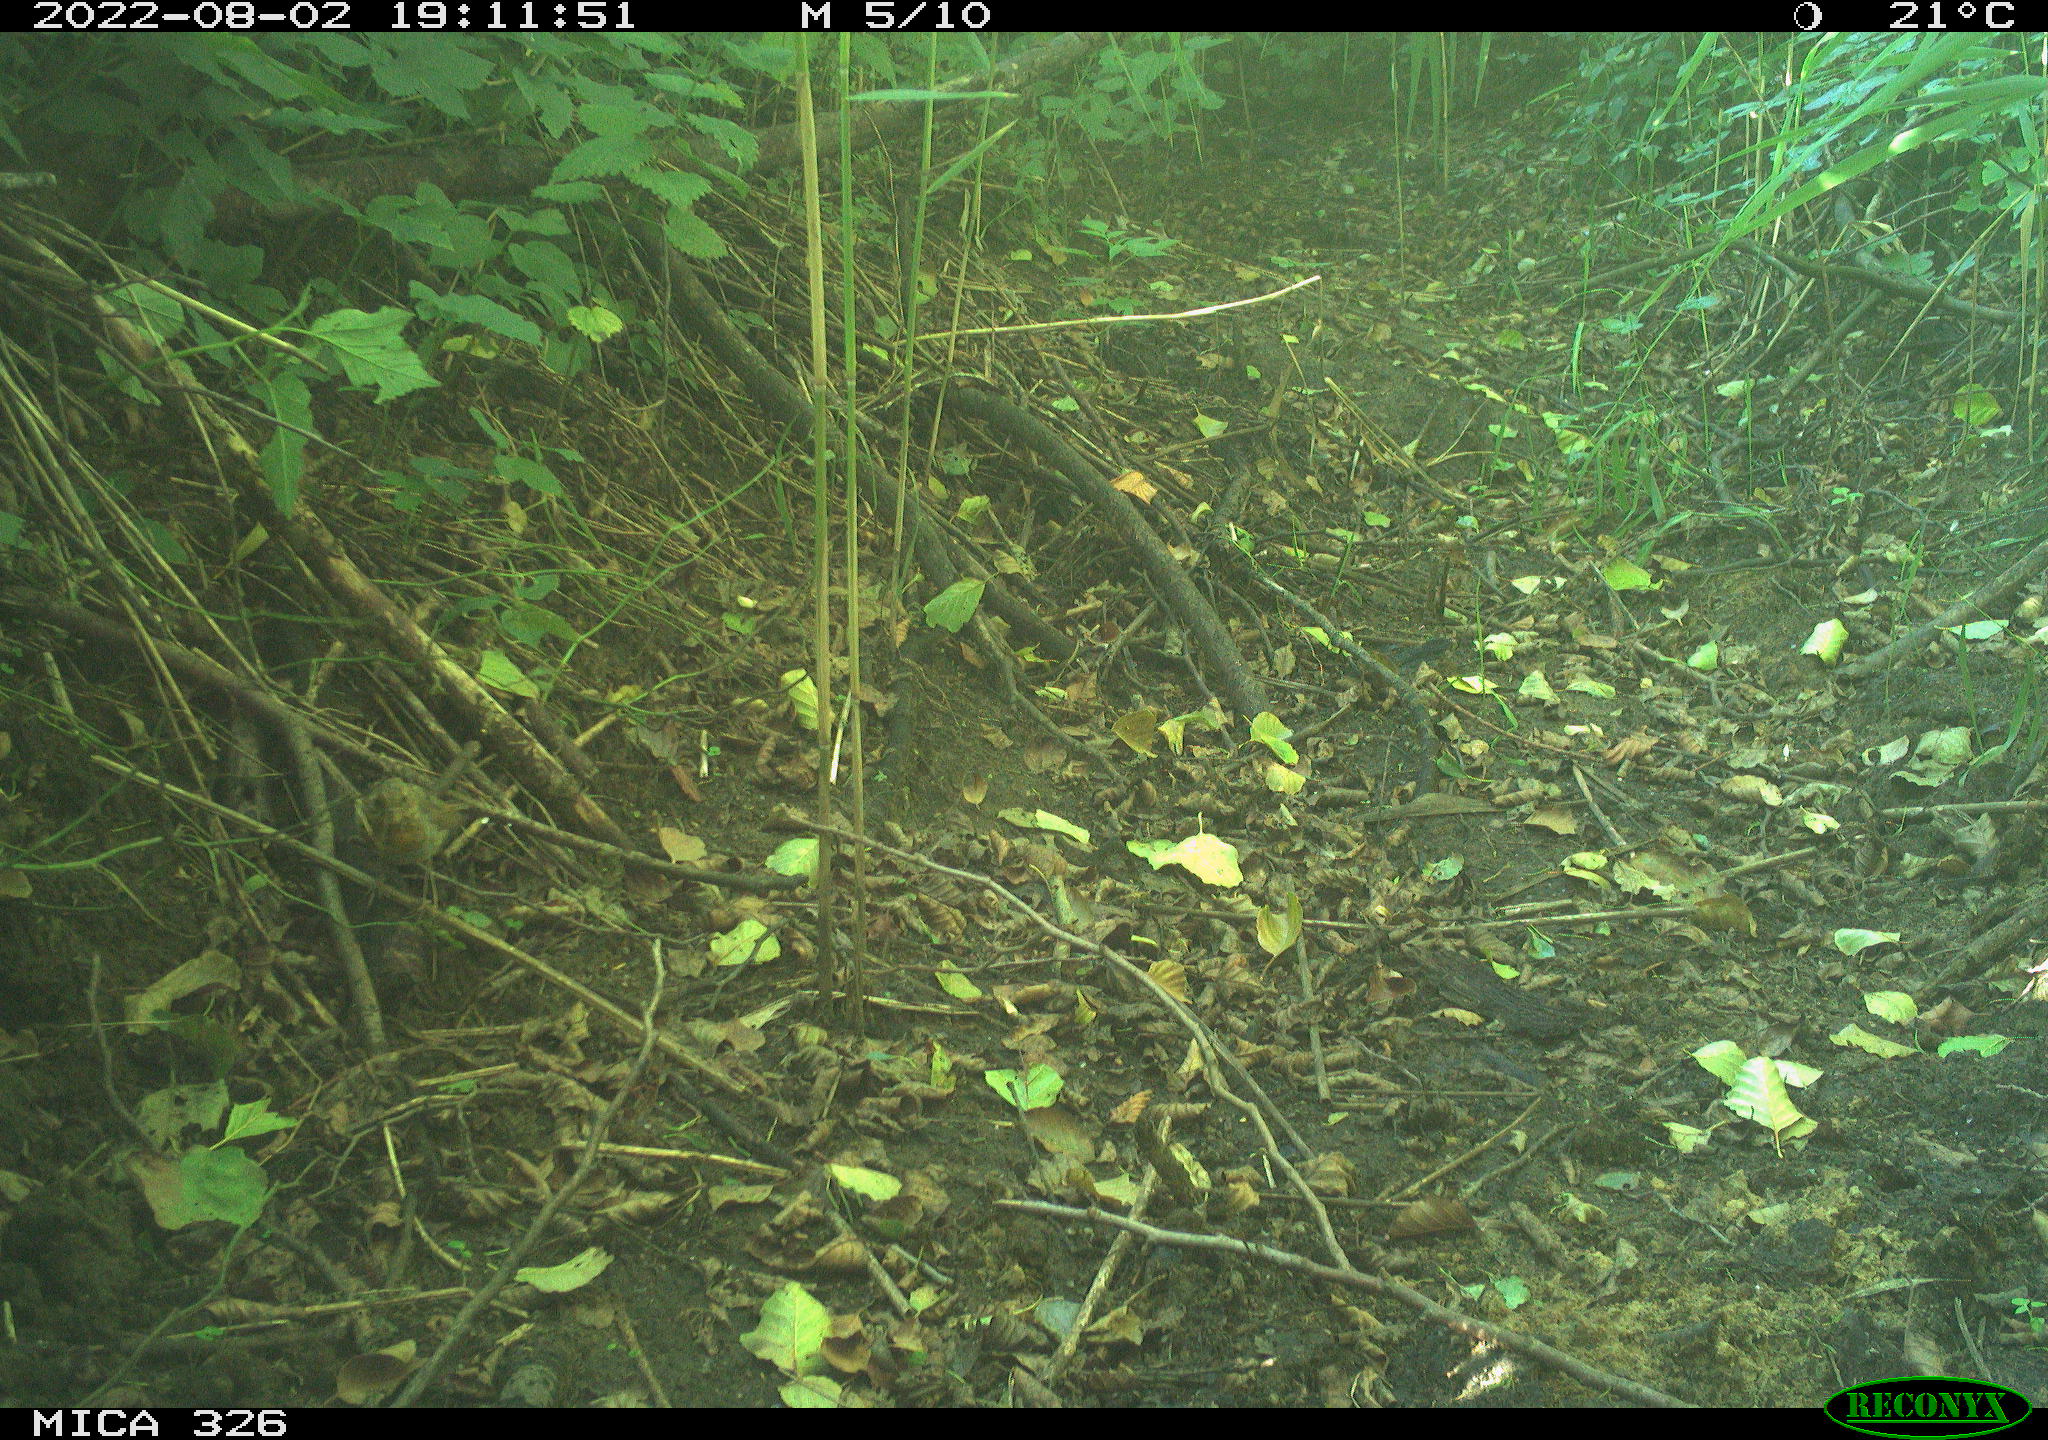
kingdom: Animalia
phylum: Chordata
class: Aves
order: Passeriformes
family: Muscicapidae
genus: Erithacus
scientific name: Erithacus rubecula
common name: European robin
